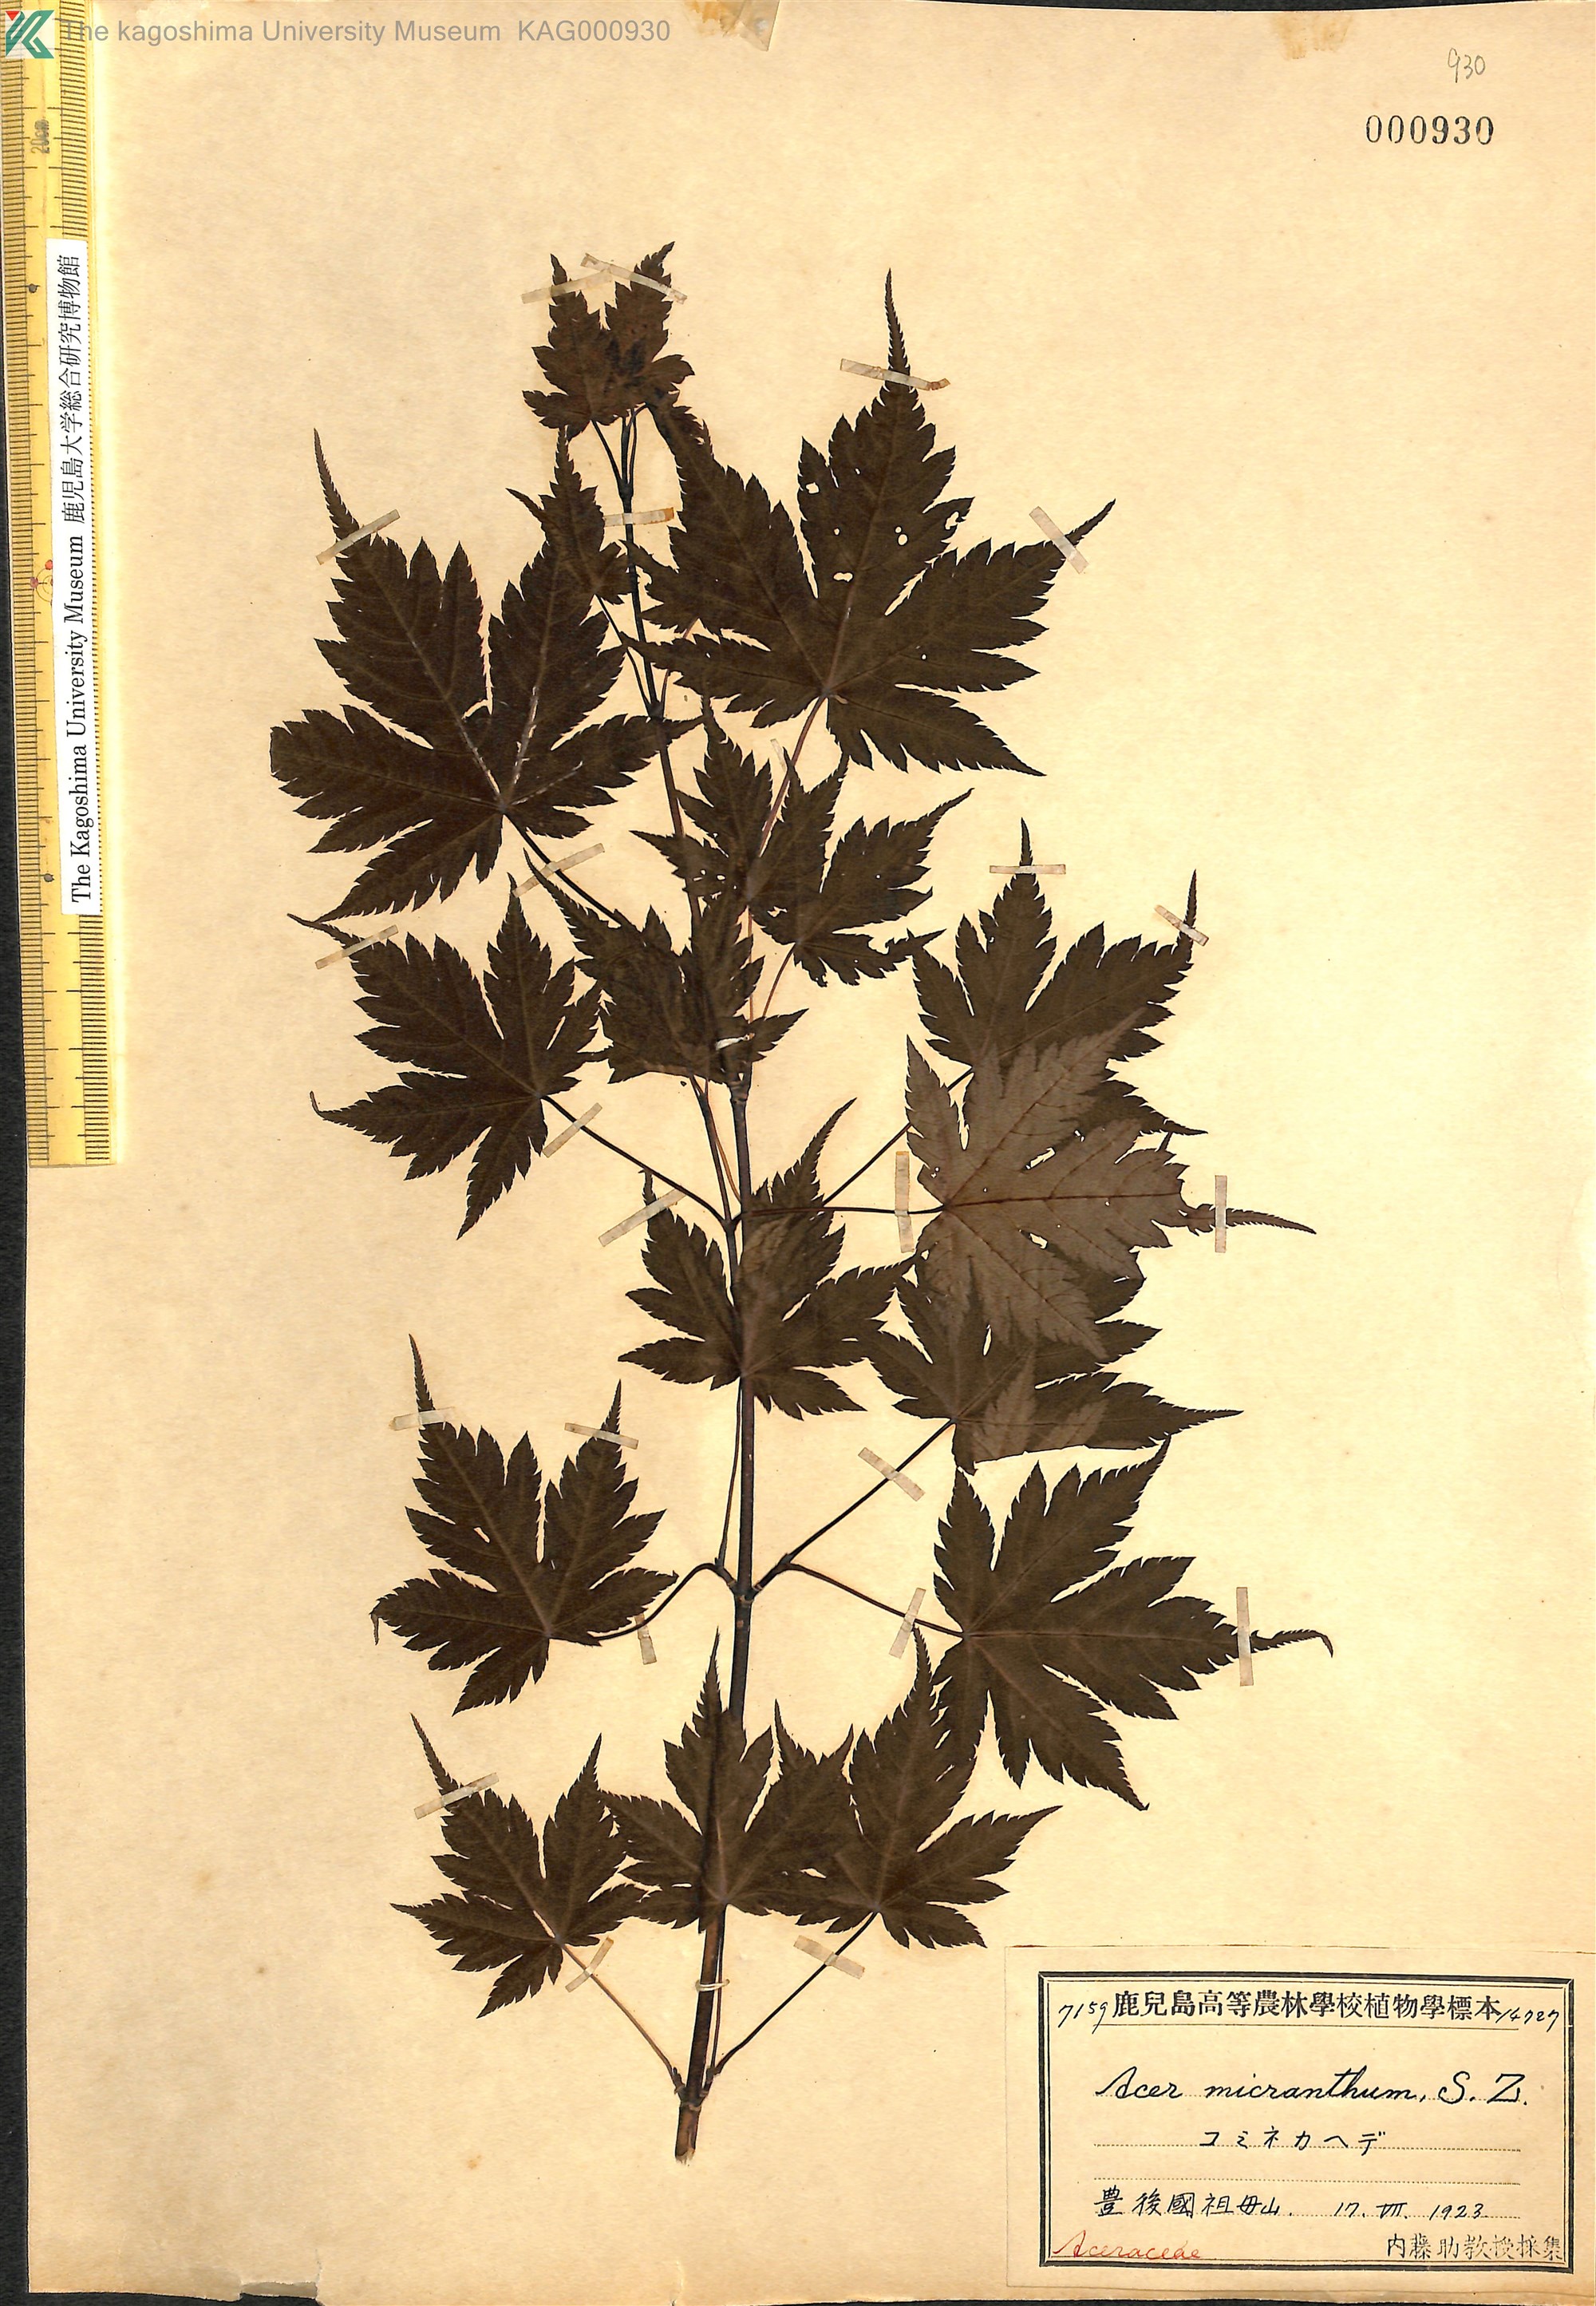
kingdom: Plantae
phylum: Tracheophyta
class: Magnoliopsida
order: Sapindales
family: Sapindaceae
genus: Acer
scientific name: Acer micranthum
